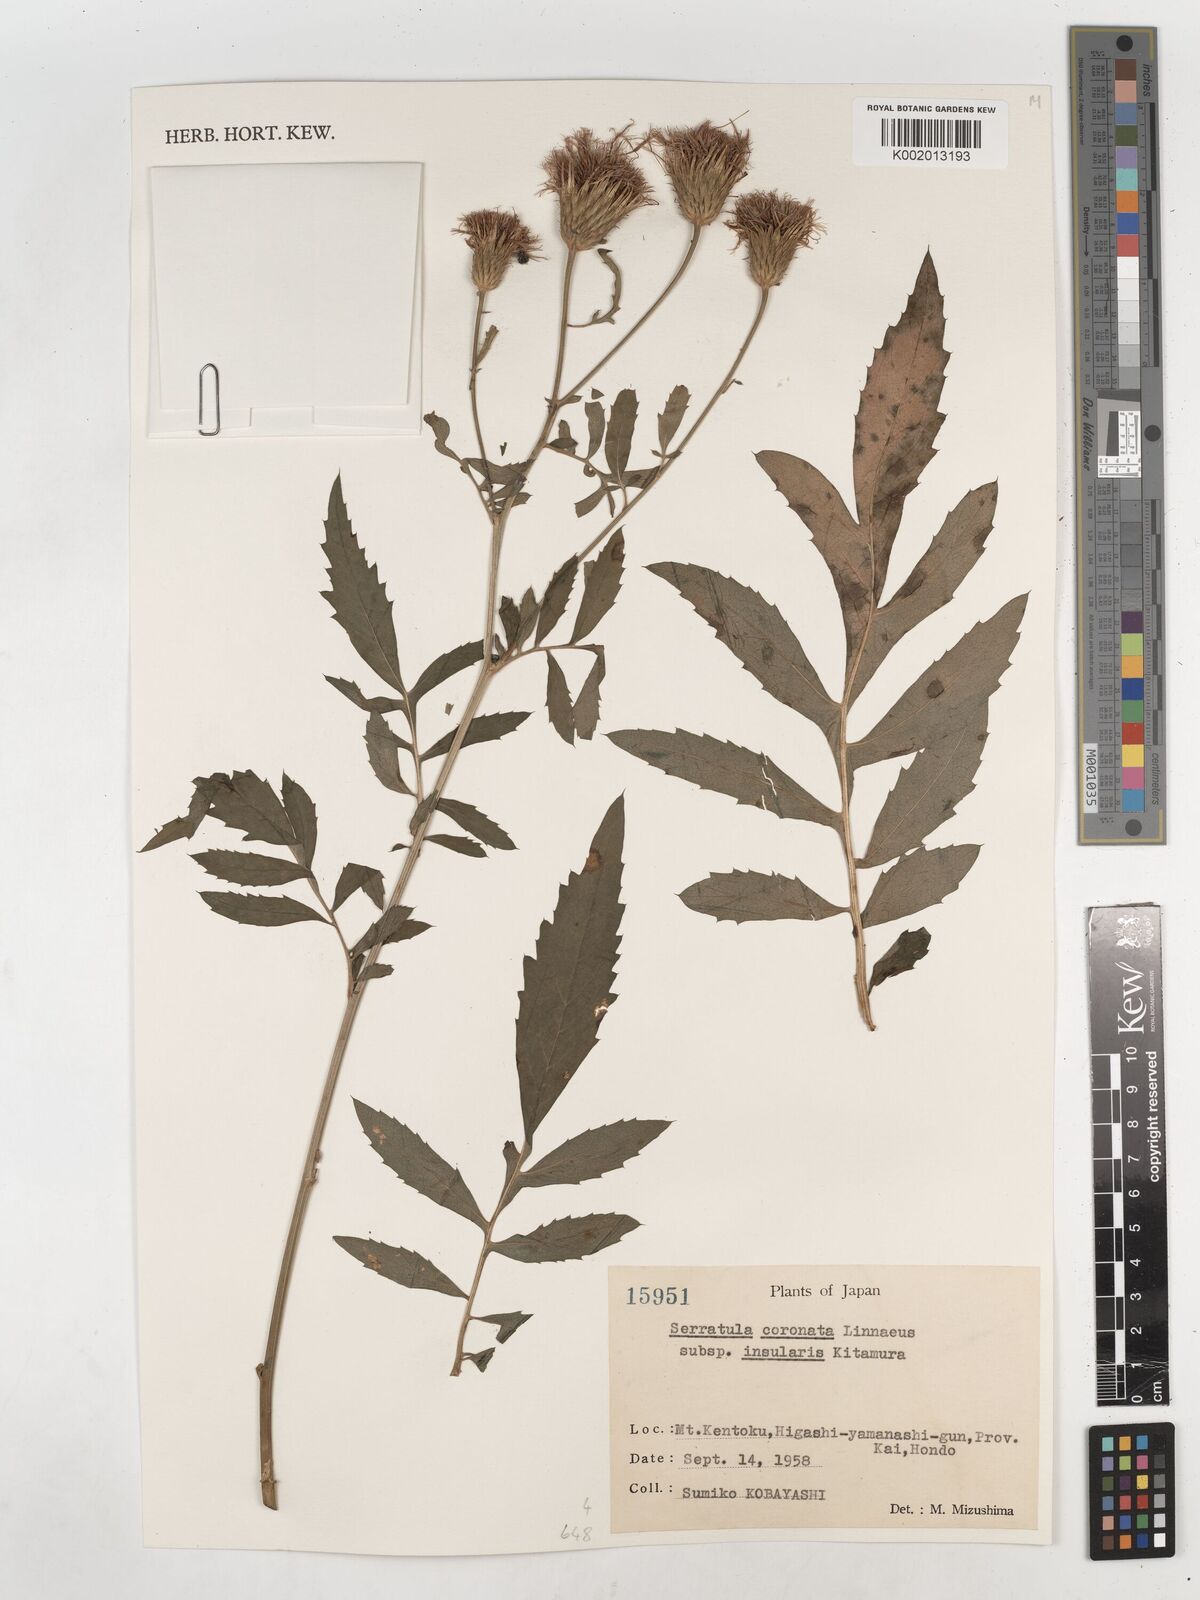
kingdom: Plantae
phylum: Tracheophyta
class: Magnoliopsida
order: Asterales
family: Asteraceae
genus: Serratula
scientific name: Serratula coronata
